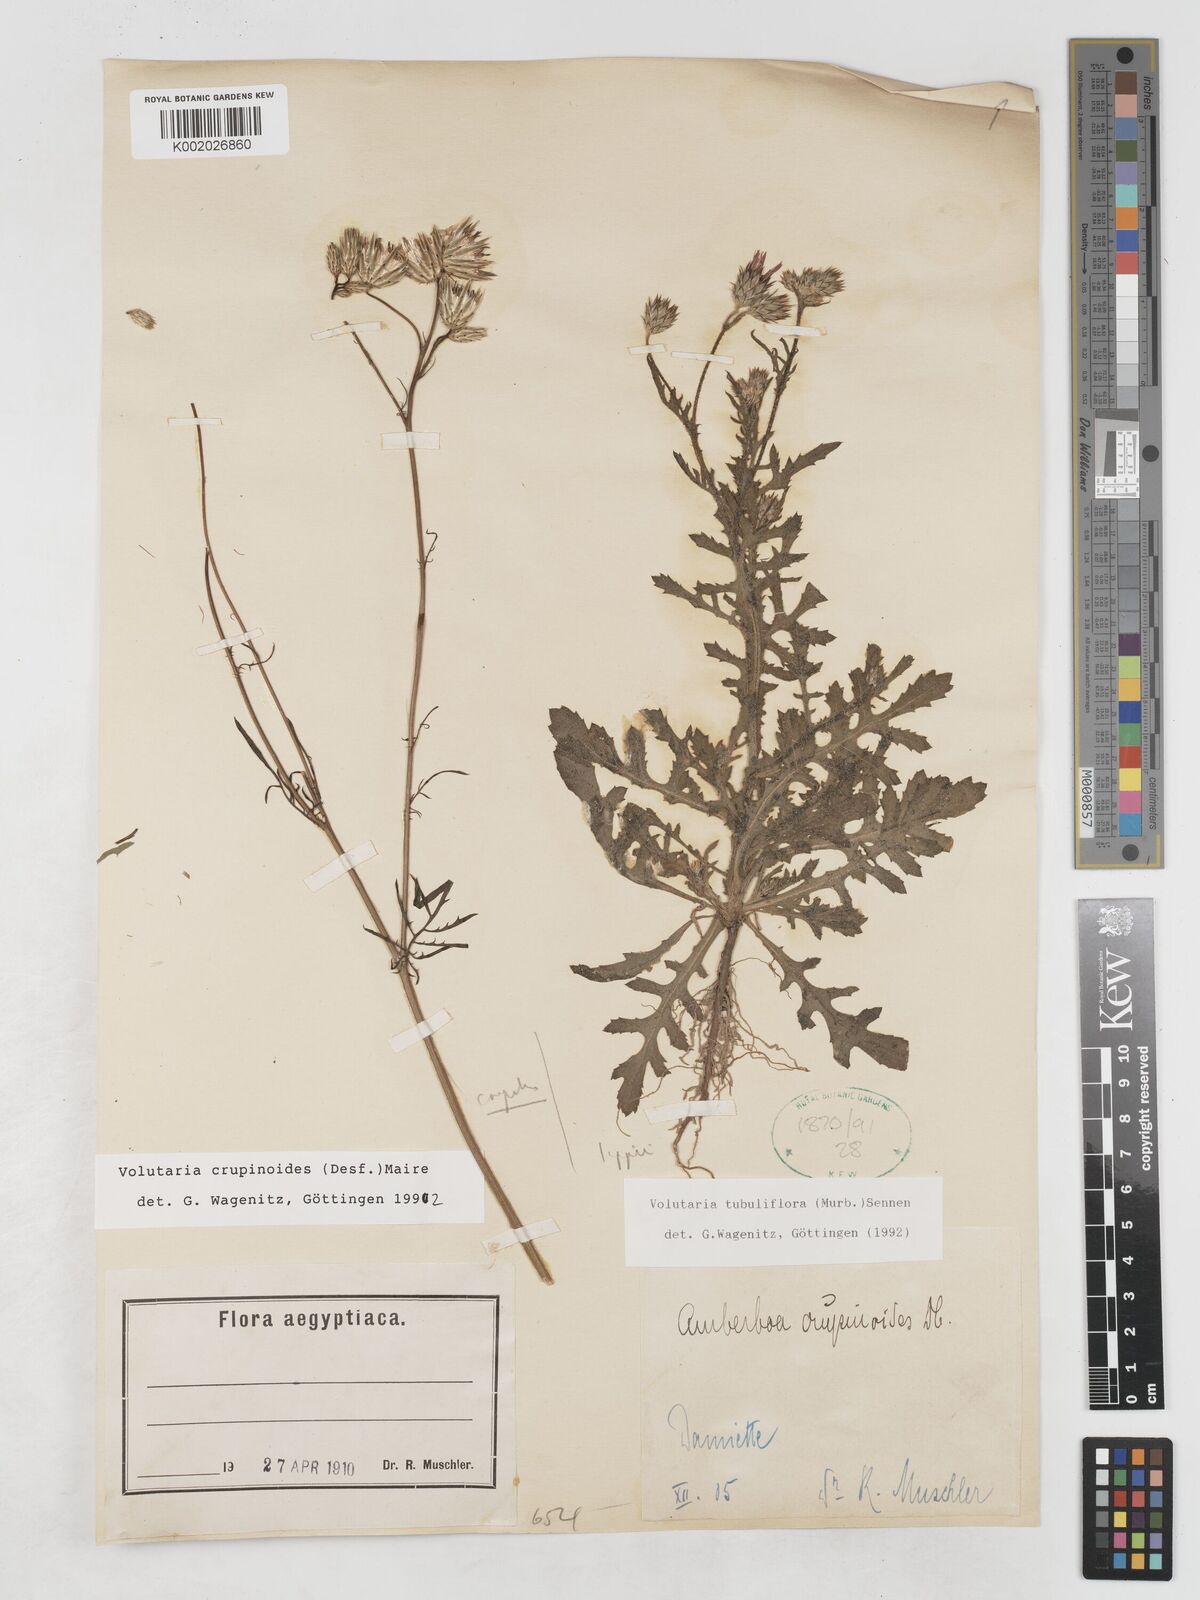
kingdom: Plantae
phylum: Tracheophyta
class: Magnoliopsida
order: Asterales
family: Asteraceae
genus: Volutaria
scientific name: Volutaria crupinoides
